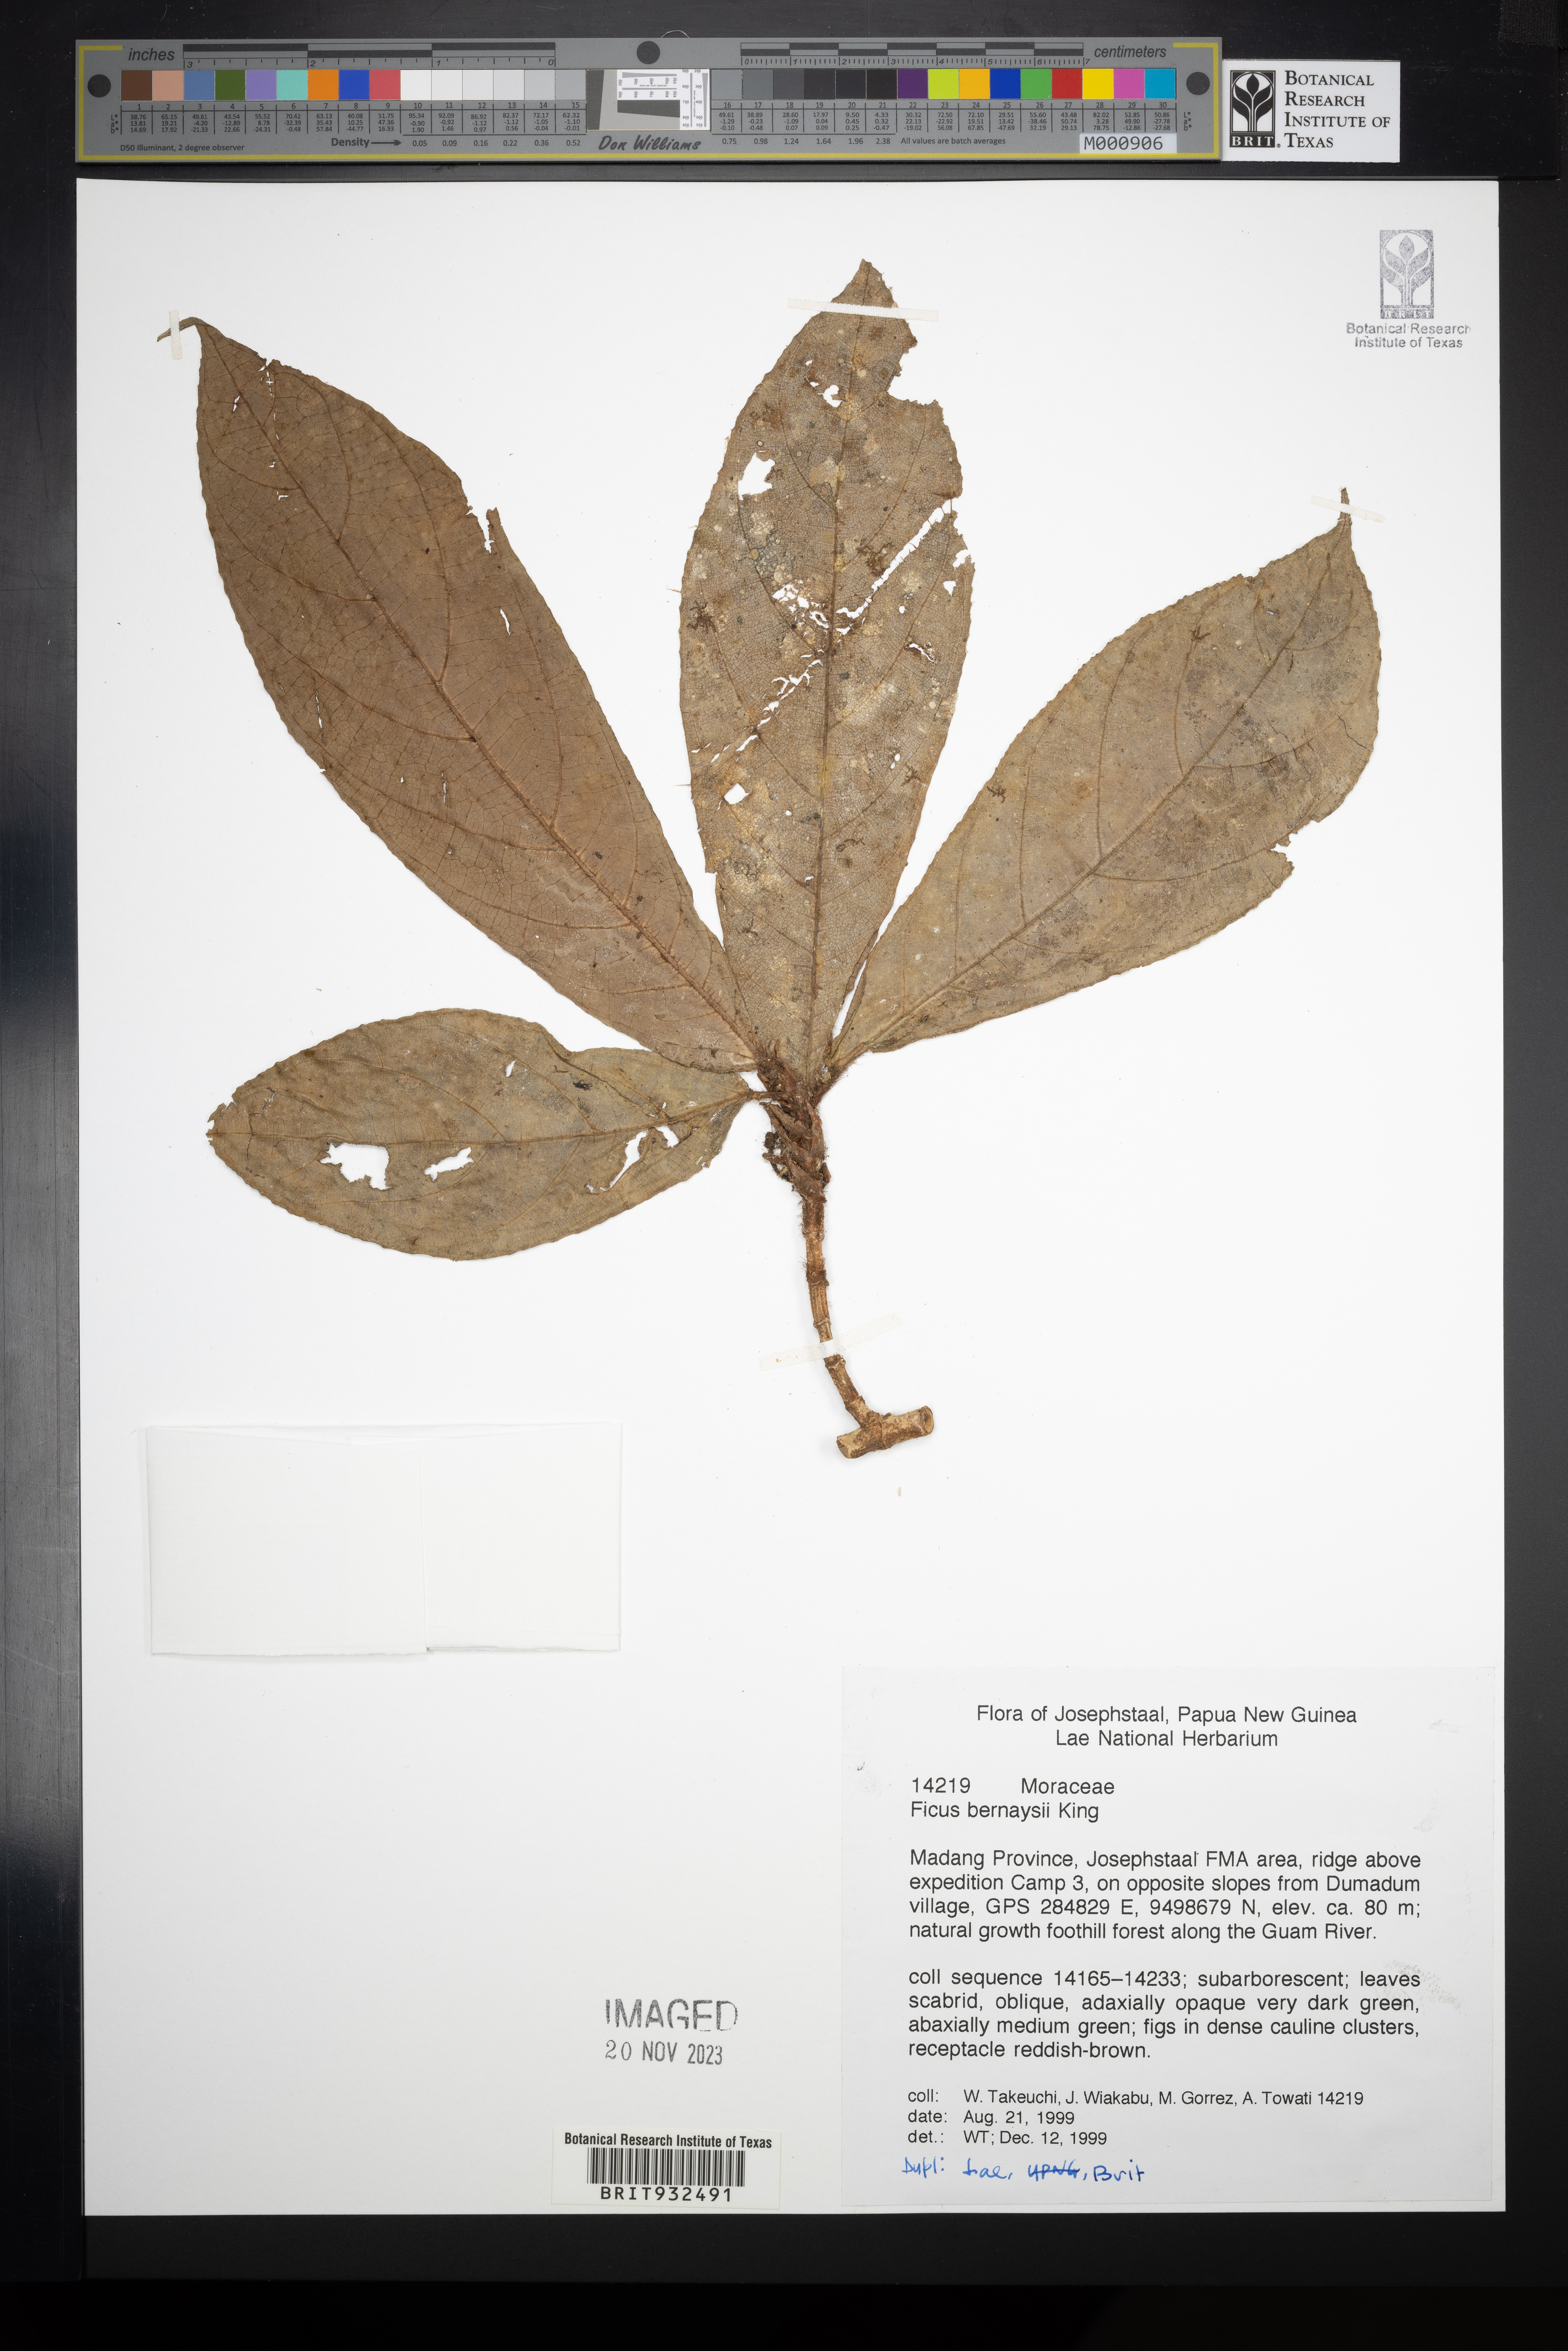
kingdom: Plantae
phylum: Tracheophyta
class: Magnoliopsida
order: Rosales
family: Moraceae
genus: Ficus
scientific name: Ficus bernaysii
